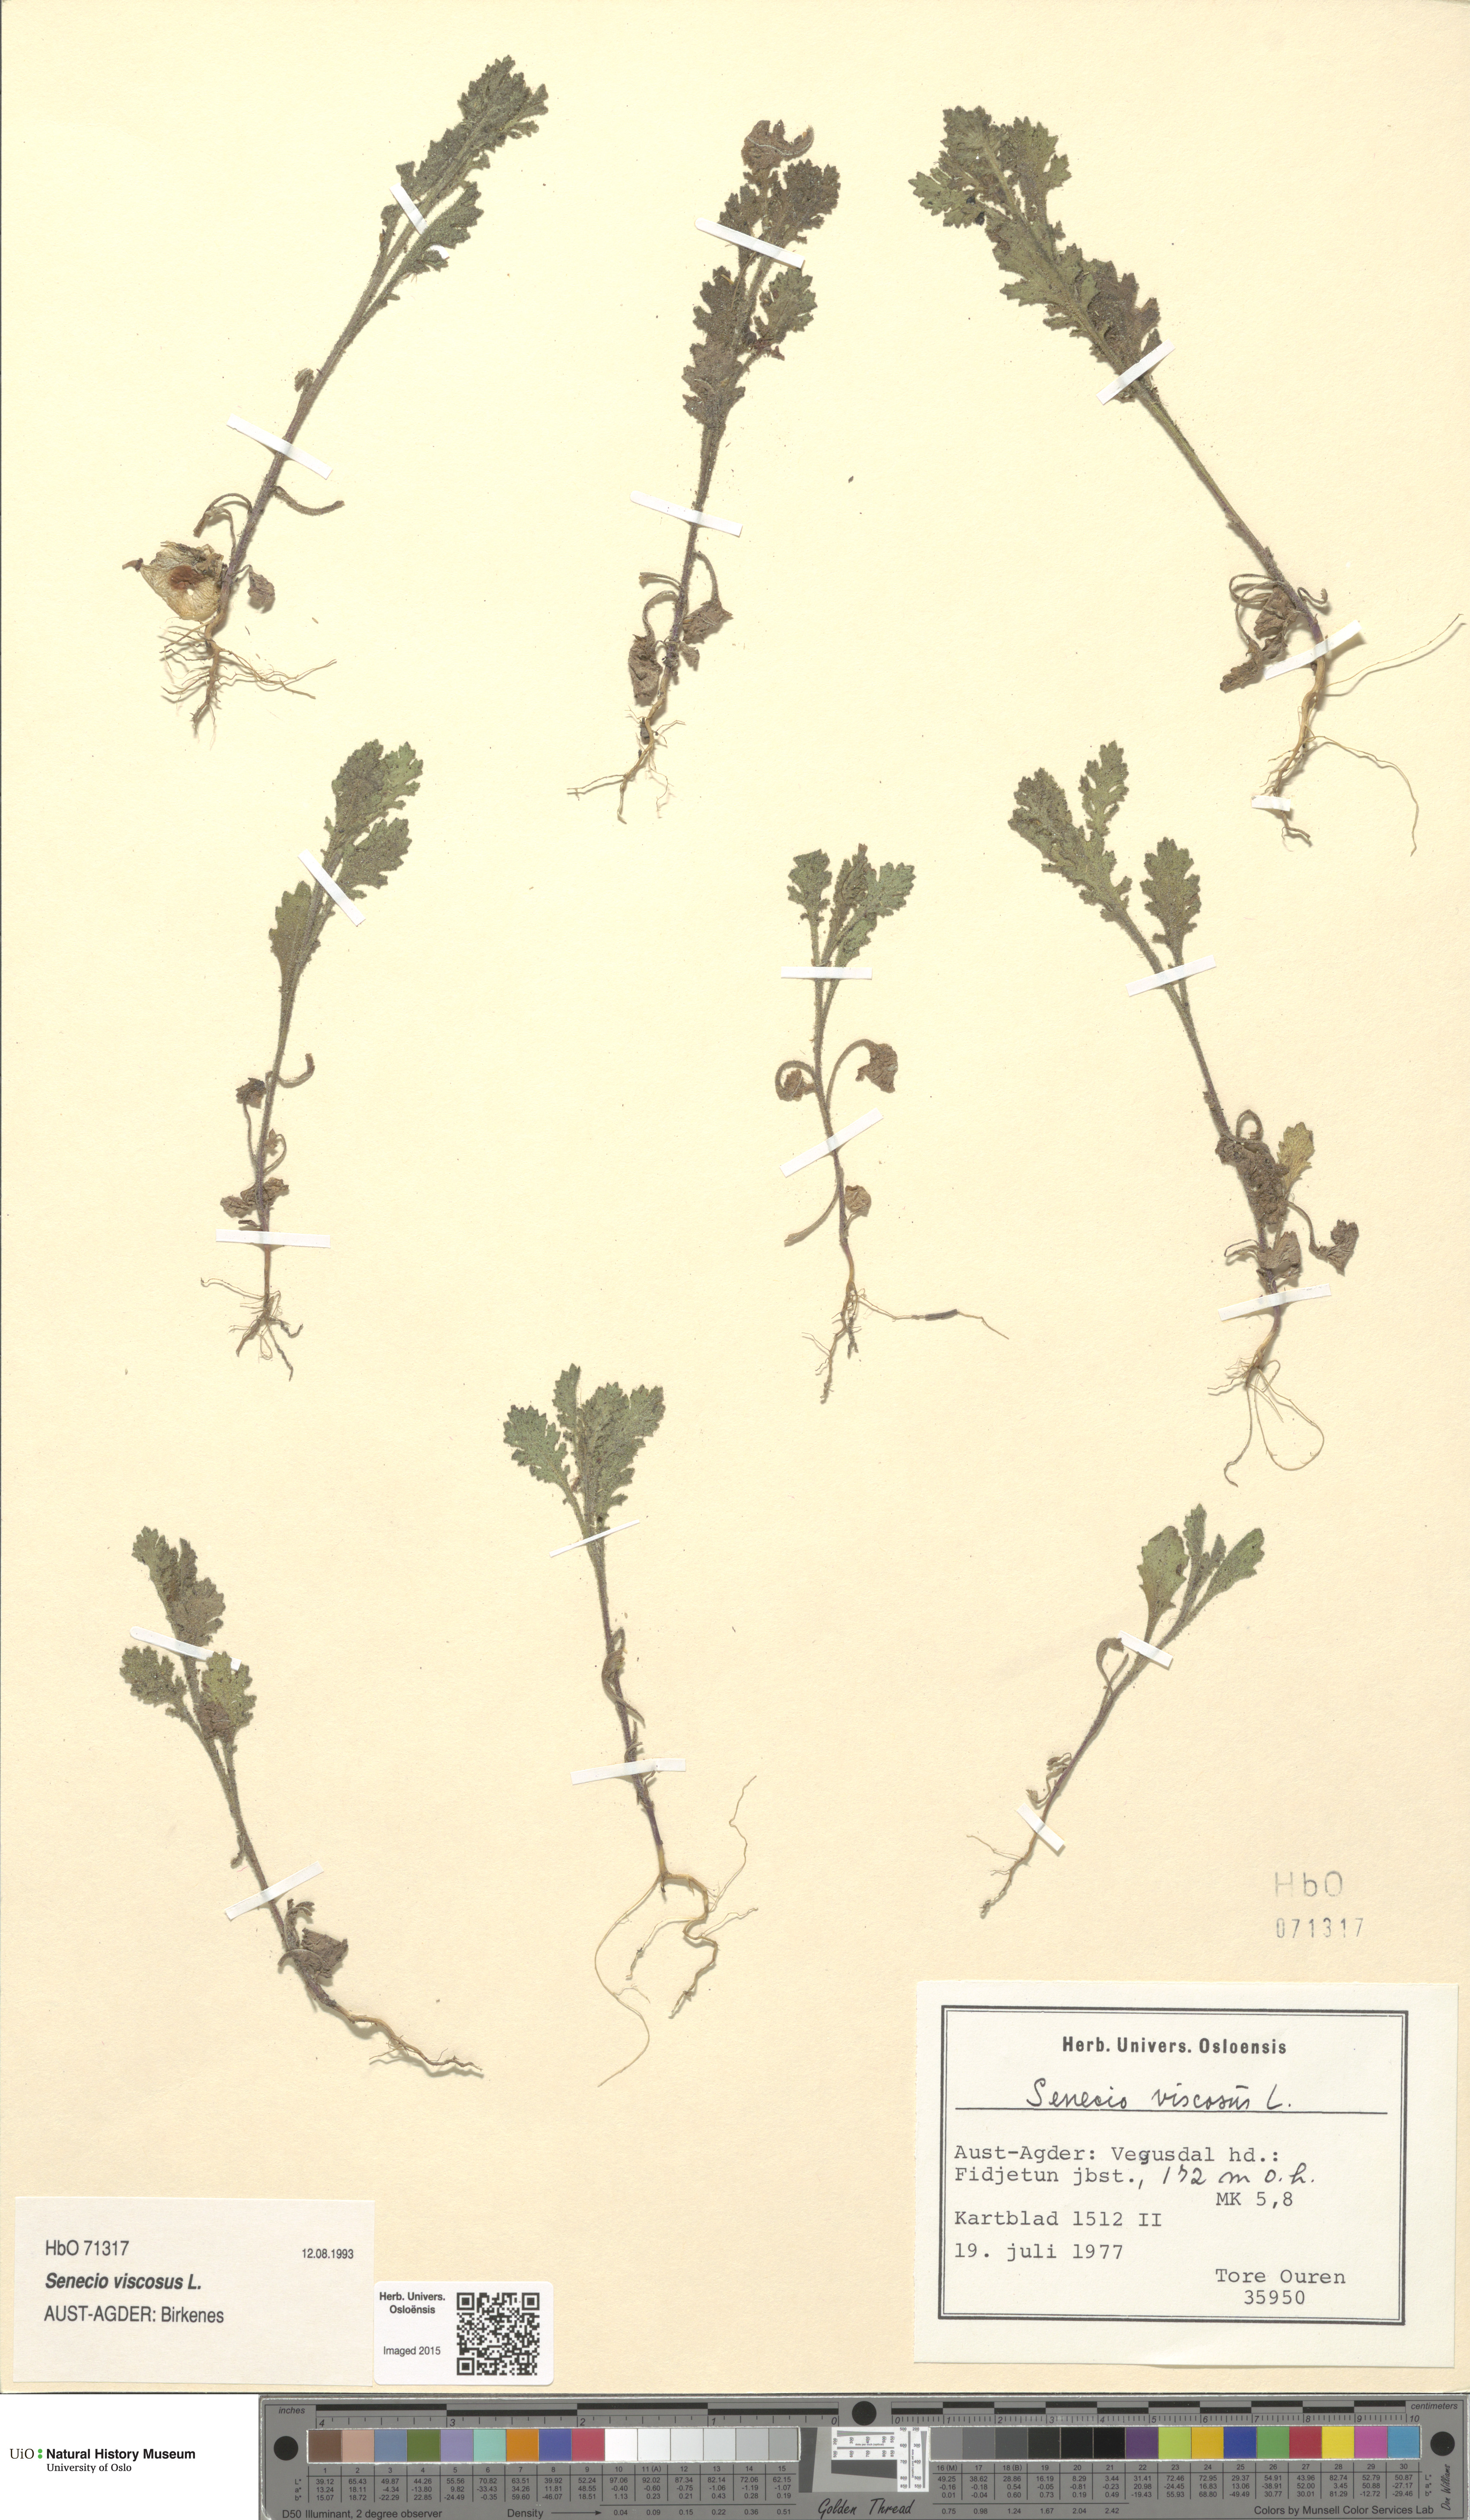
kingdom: Plantae
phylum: Tracheophyta
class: Magnoliopsida
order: Asterales
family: Asteraceae
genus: Senecio
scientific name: Senecio viscosus
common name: Sticky groundsel
